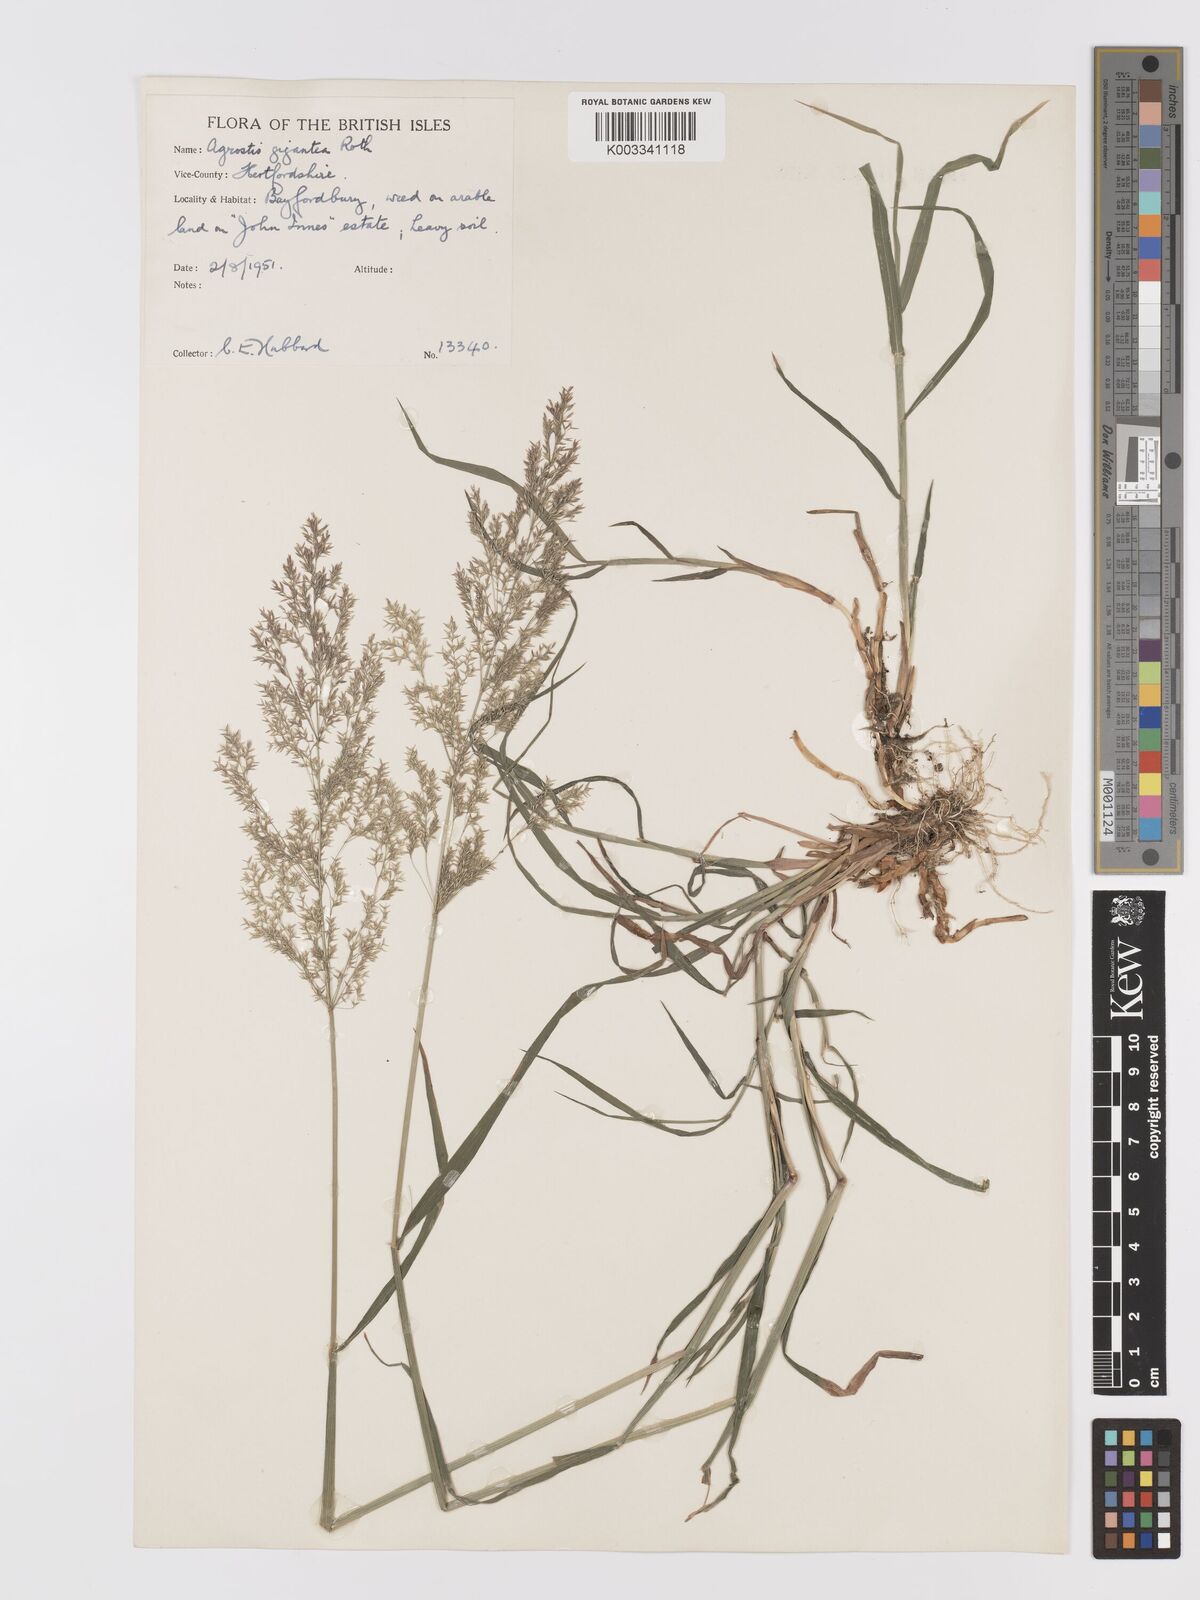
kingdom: Plantae
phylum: Tracheophyta
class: Liliopsida
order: Poales
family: Poaceae
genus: Agrostis
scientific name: Agrostis gigantea
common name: Black bent
